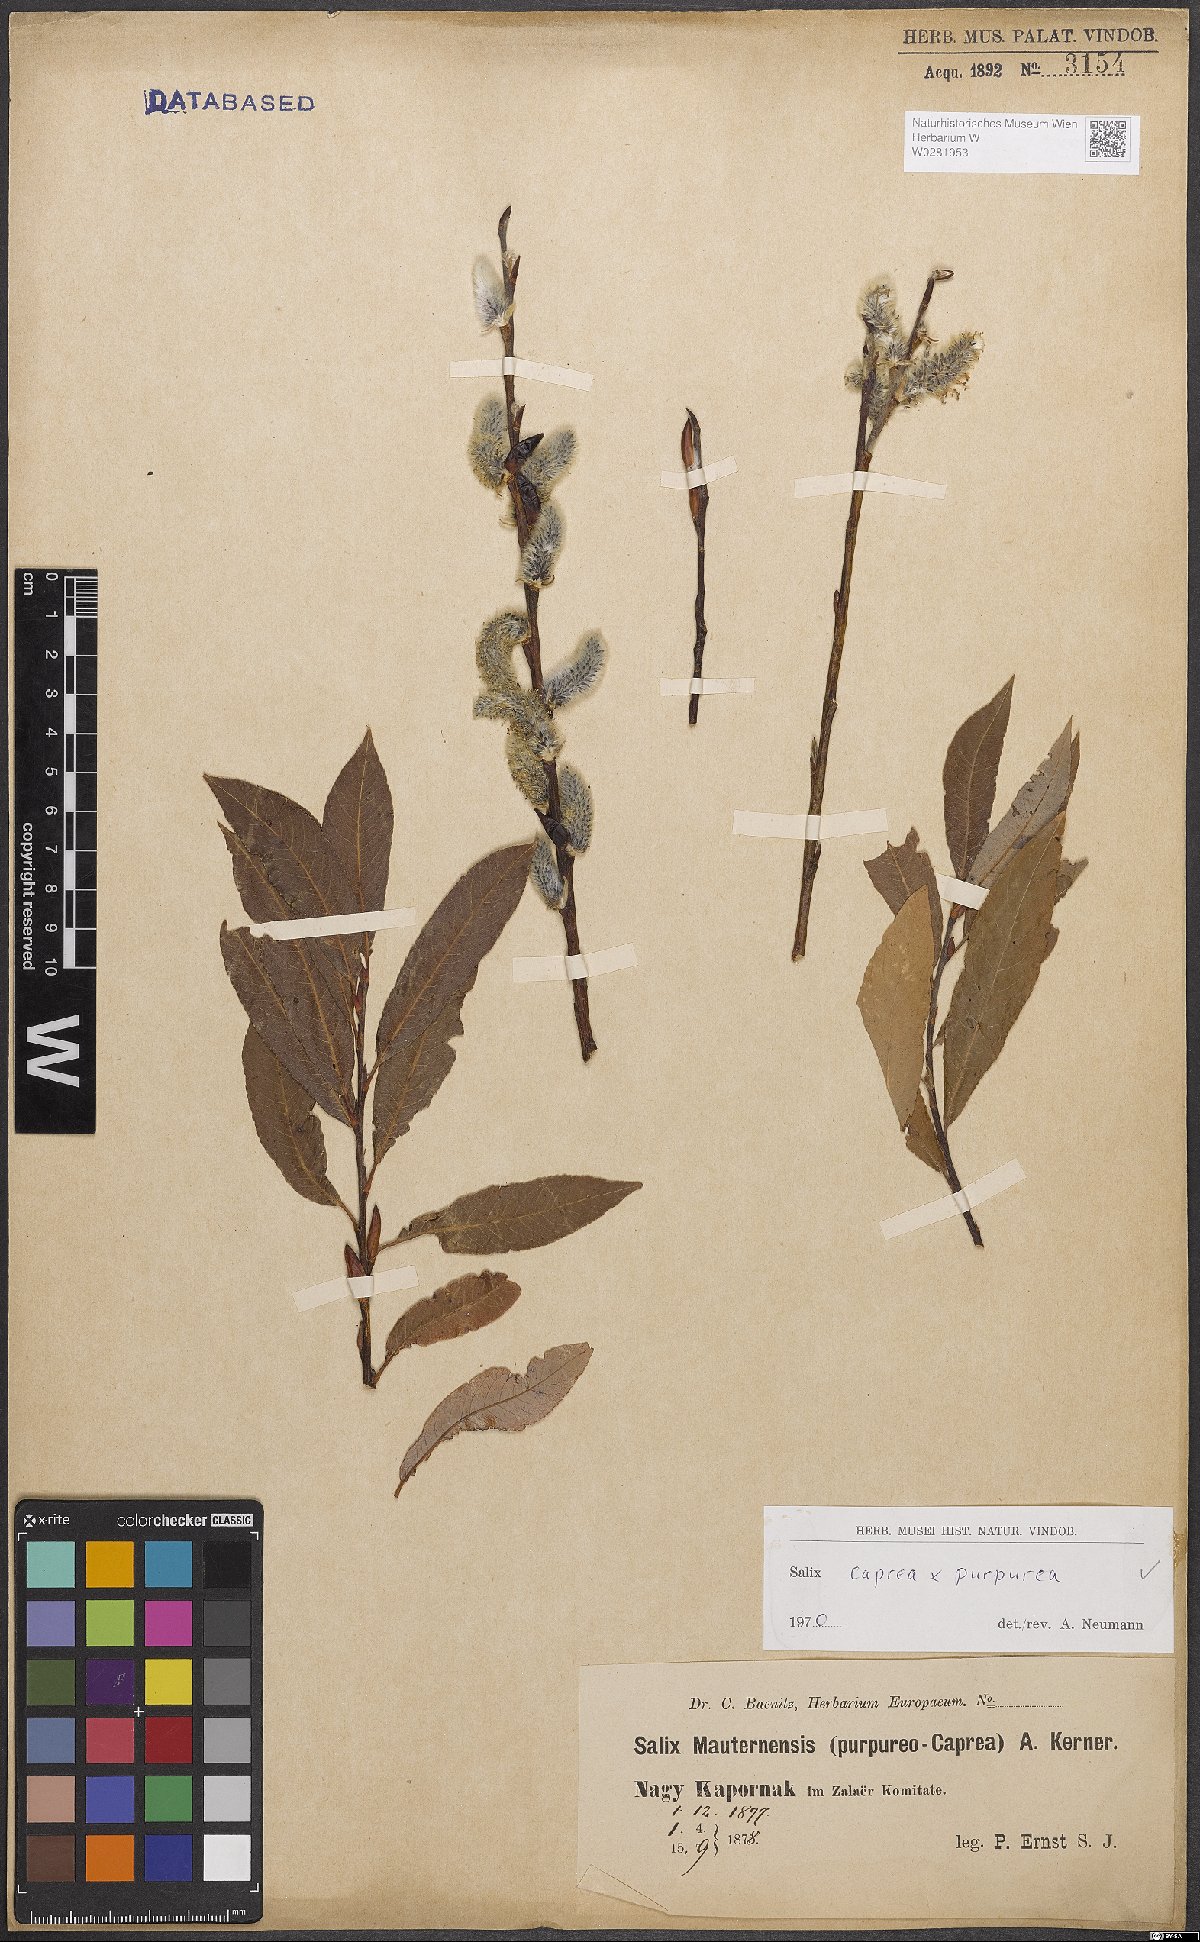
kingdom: Plantae
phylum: Tracheophyta
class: Magnoliopsida
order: Malpighiales
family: Salicaceae
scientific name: Salicaceae
